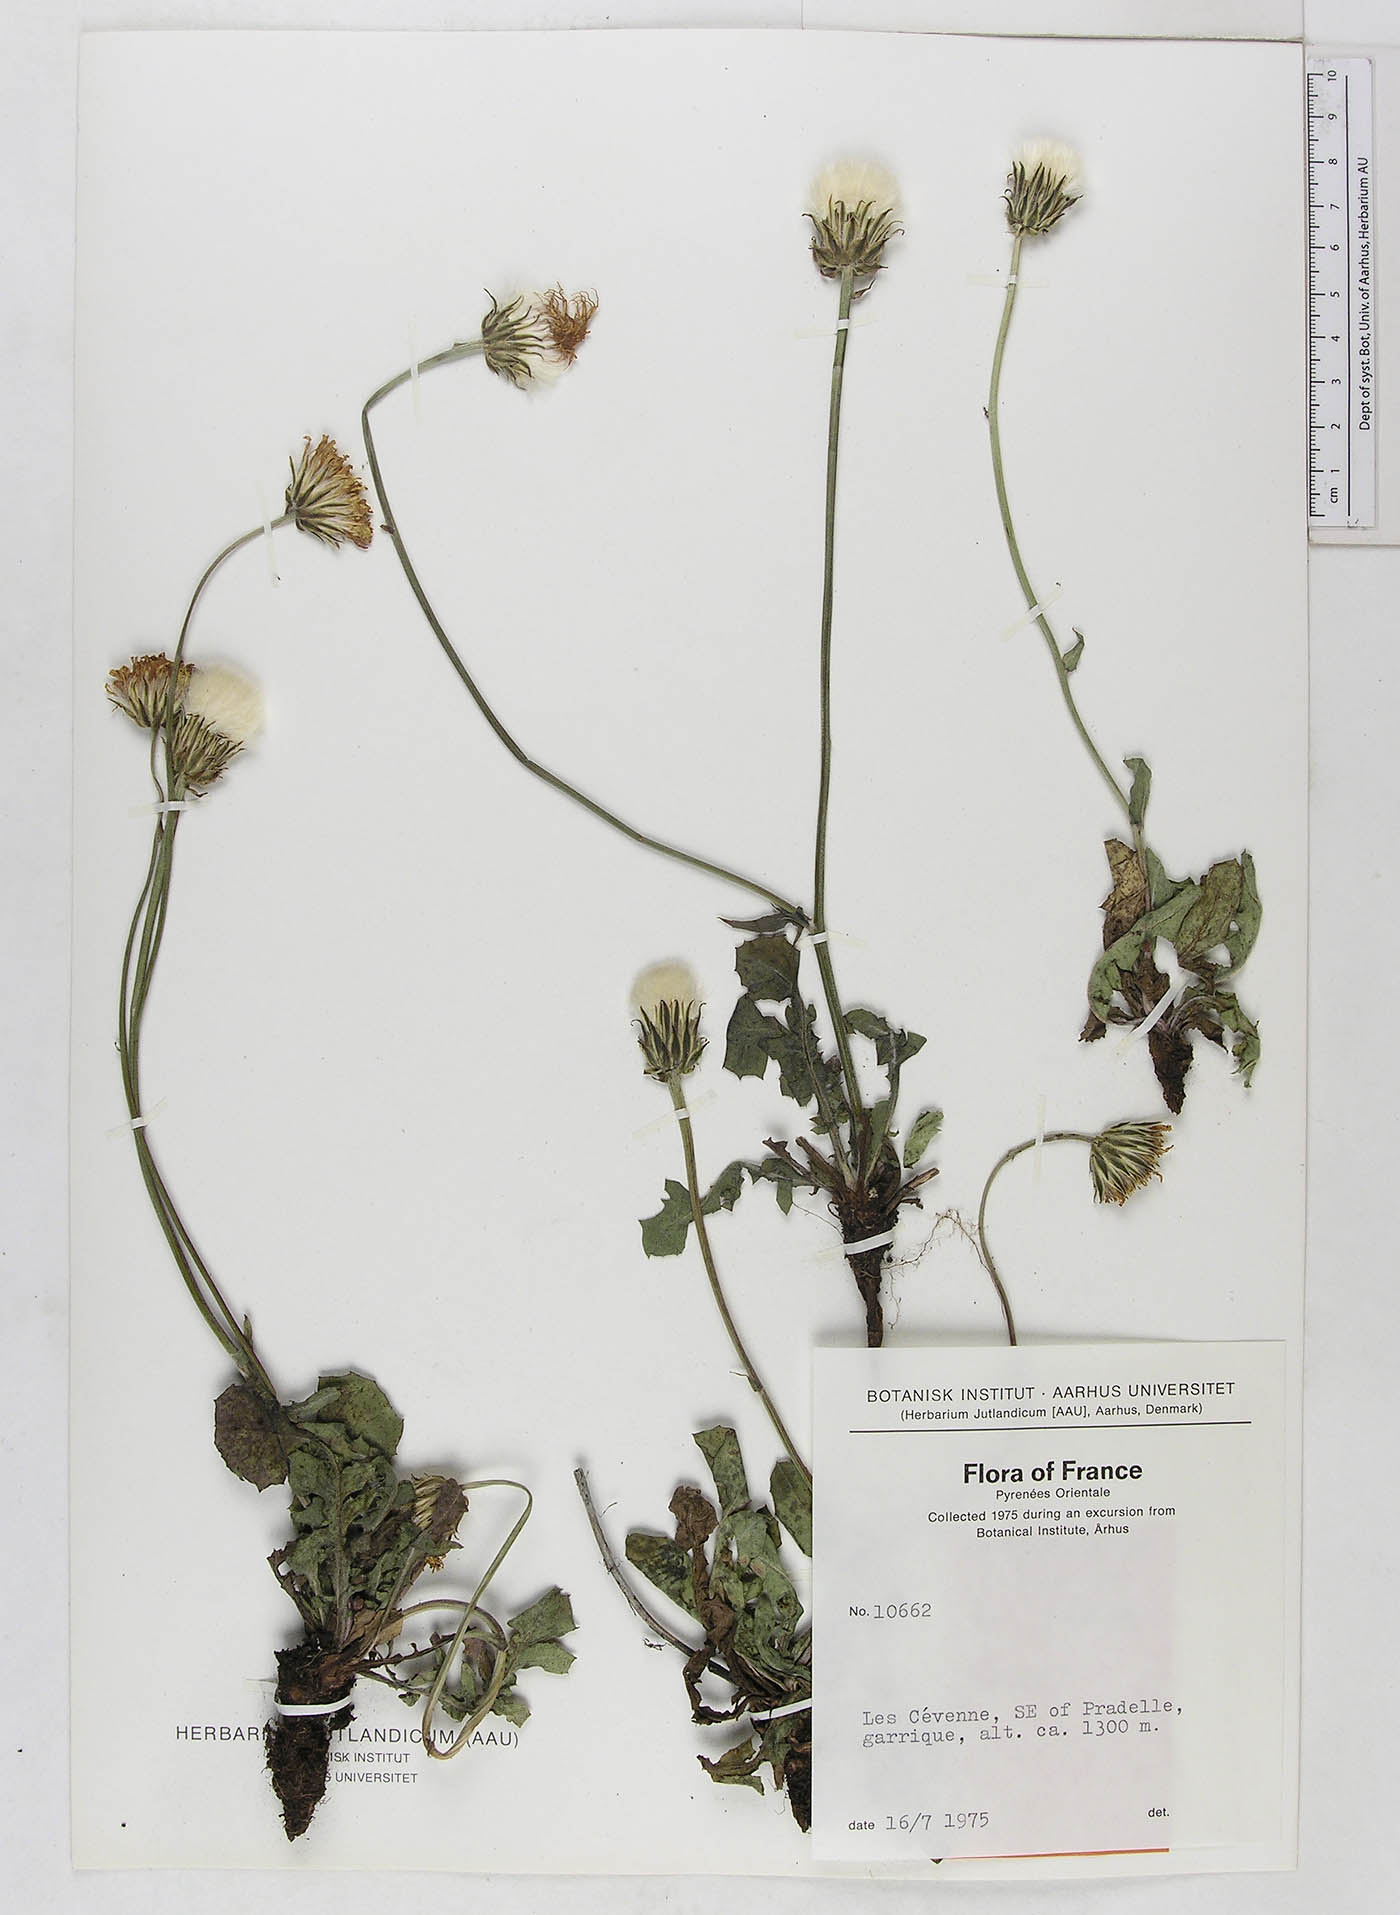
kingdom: Plantae
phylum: Tracheophyta
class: Magnoliopsida
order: Asterales
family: Asteraceae
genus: Crepis
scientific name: Crepis
